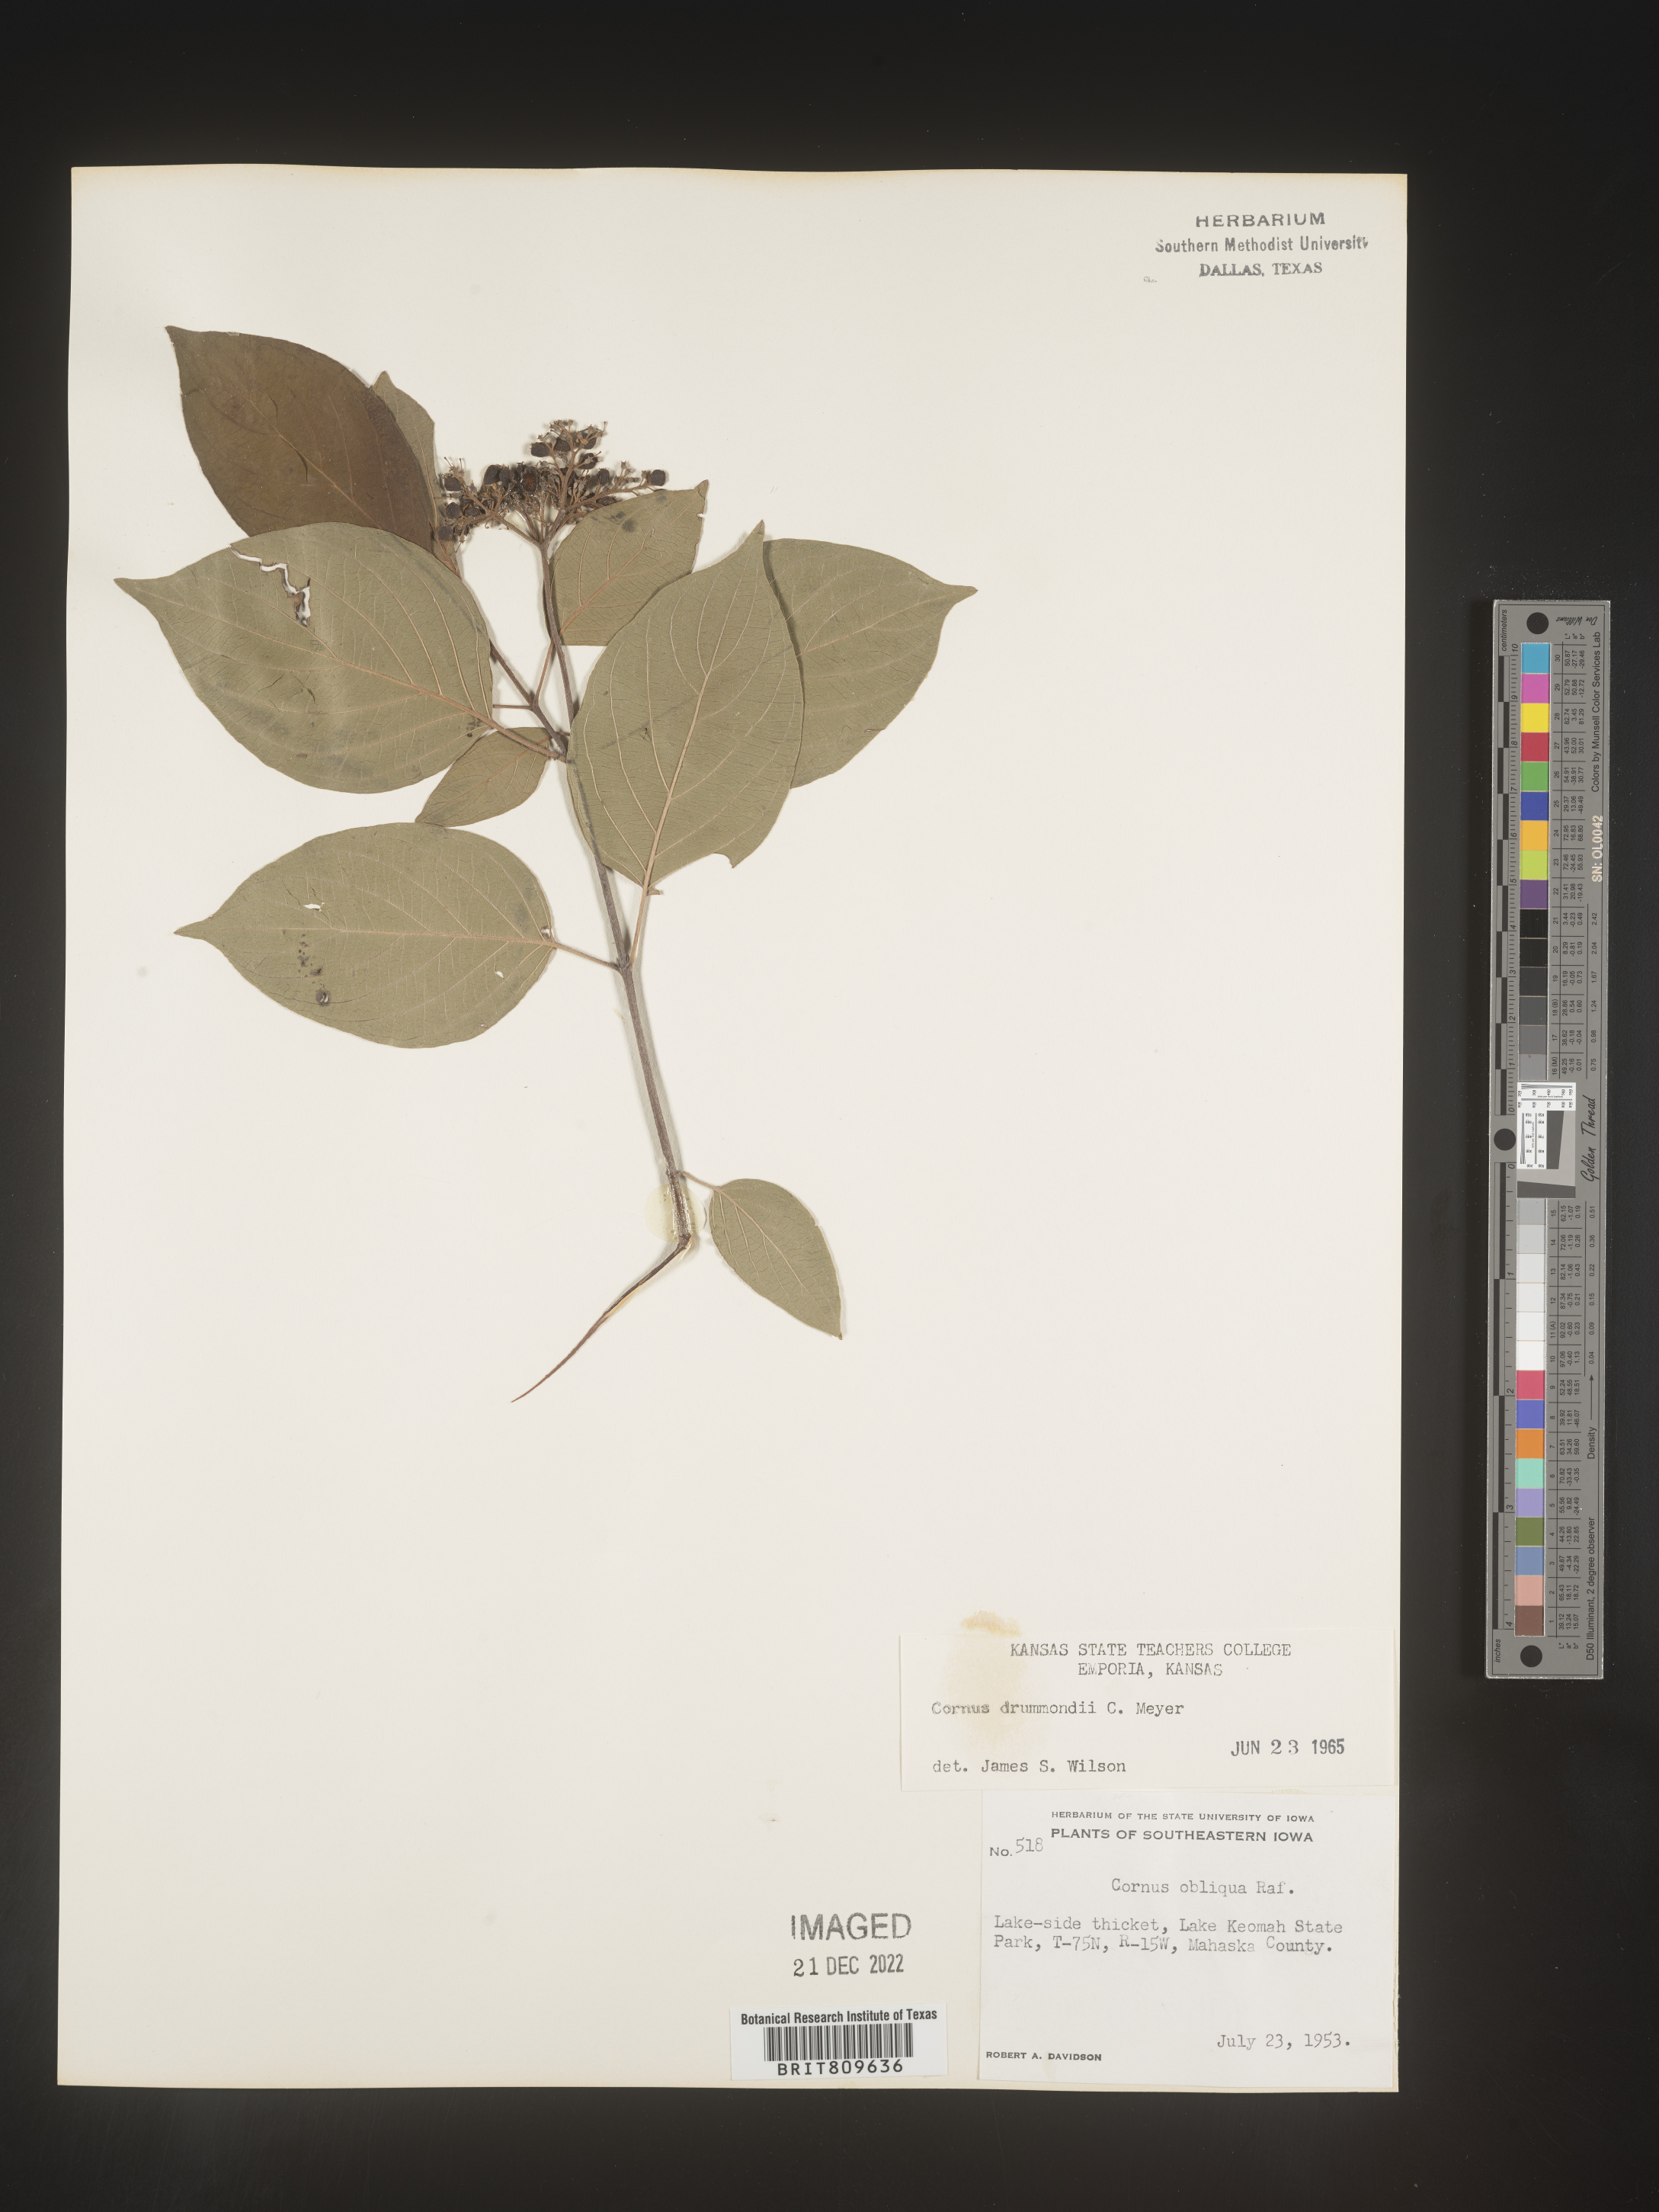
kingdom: Plantae
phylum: Tracheophyta
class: Magnoliopsida
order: Cornales
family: Cornaceae
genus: Cornus
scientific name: Cornus drummondii
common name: Rough-leaf dogwood
